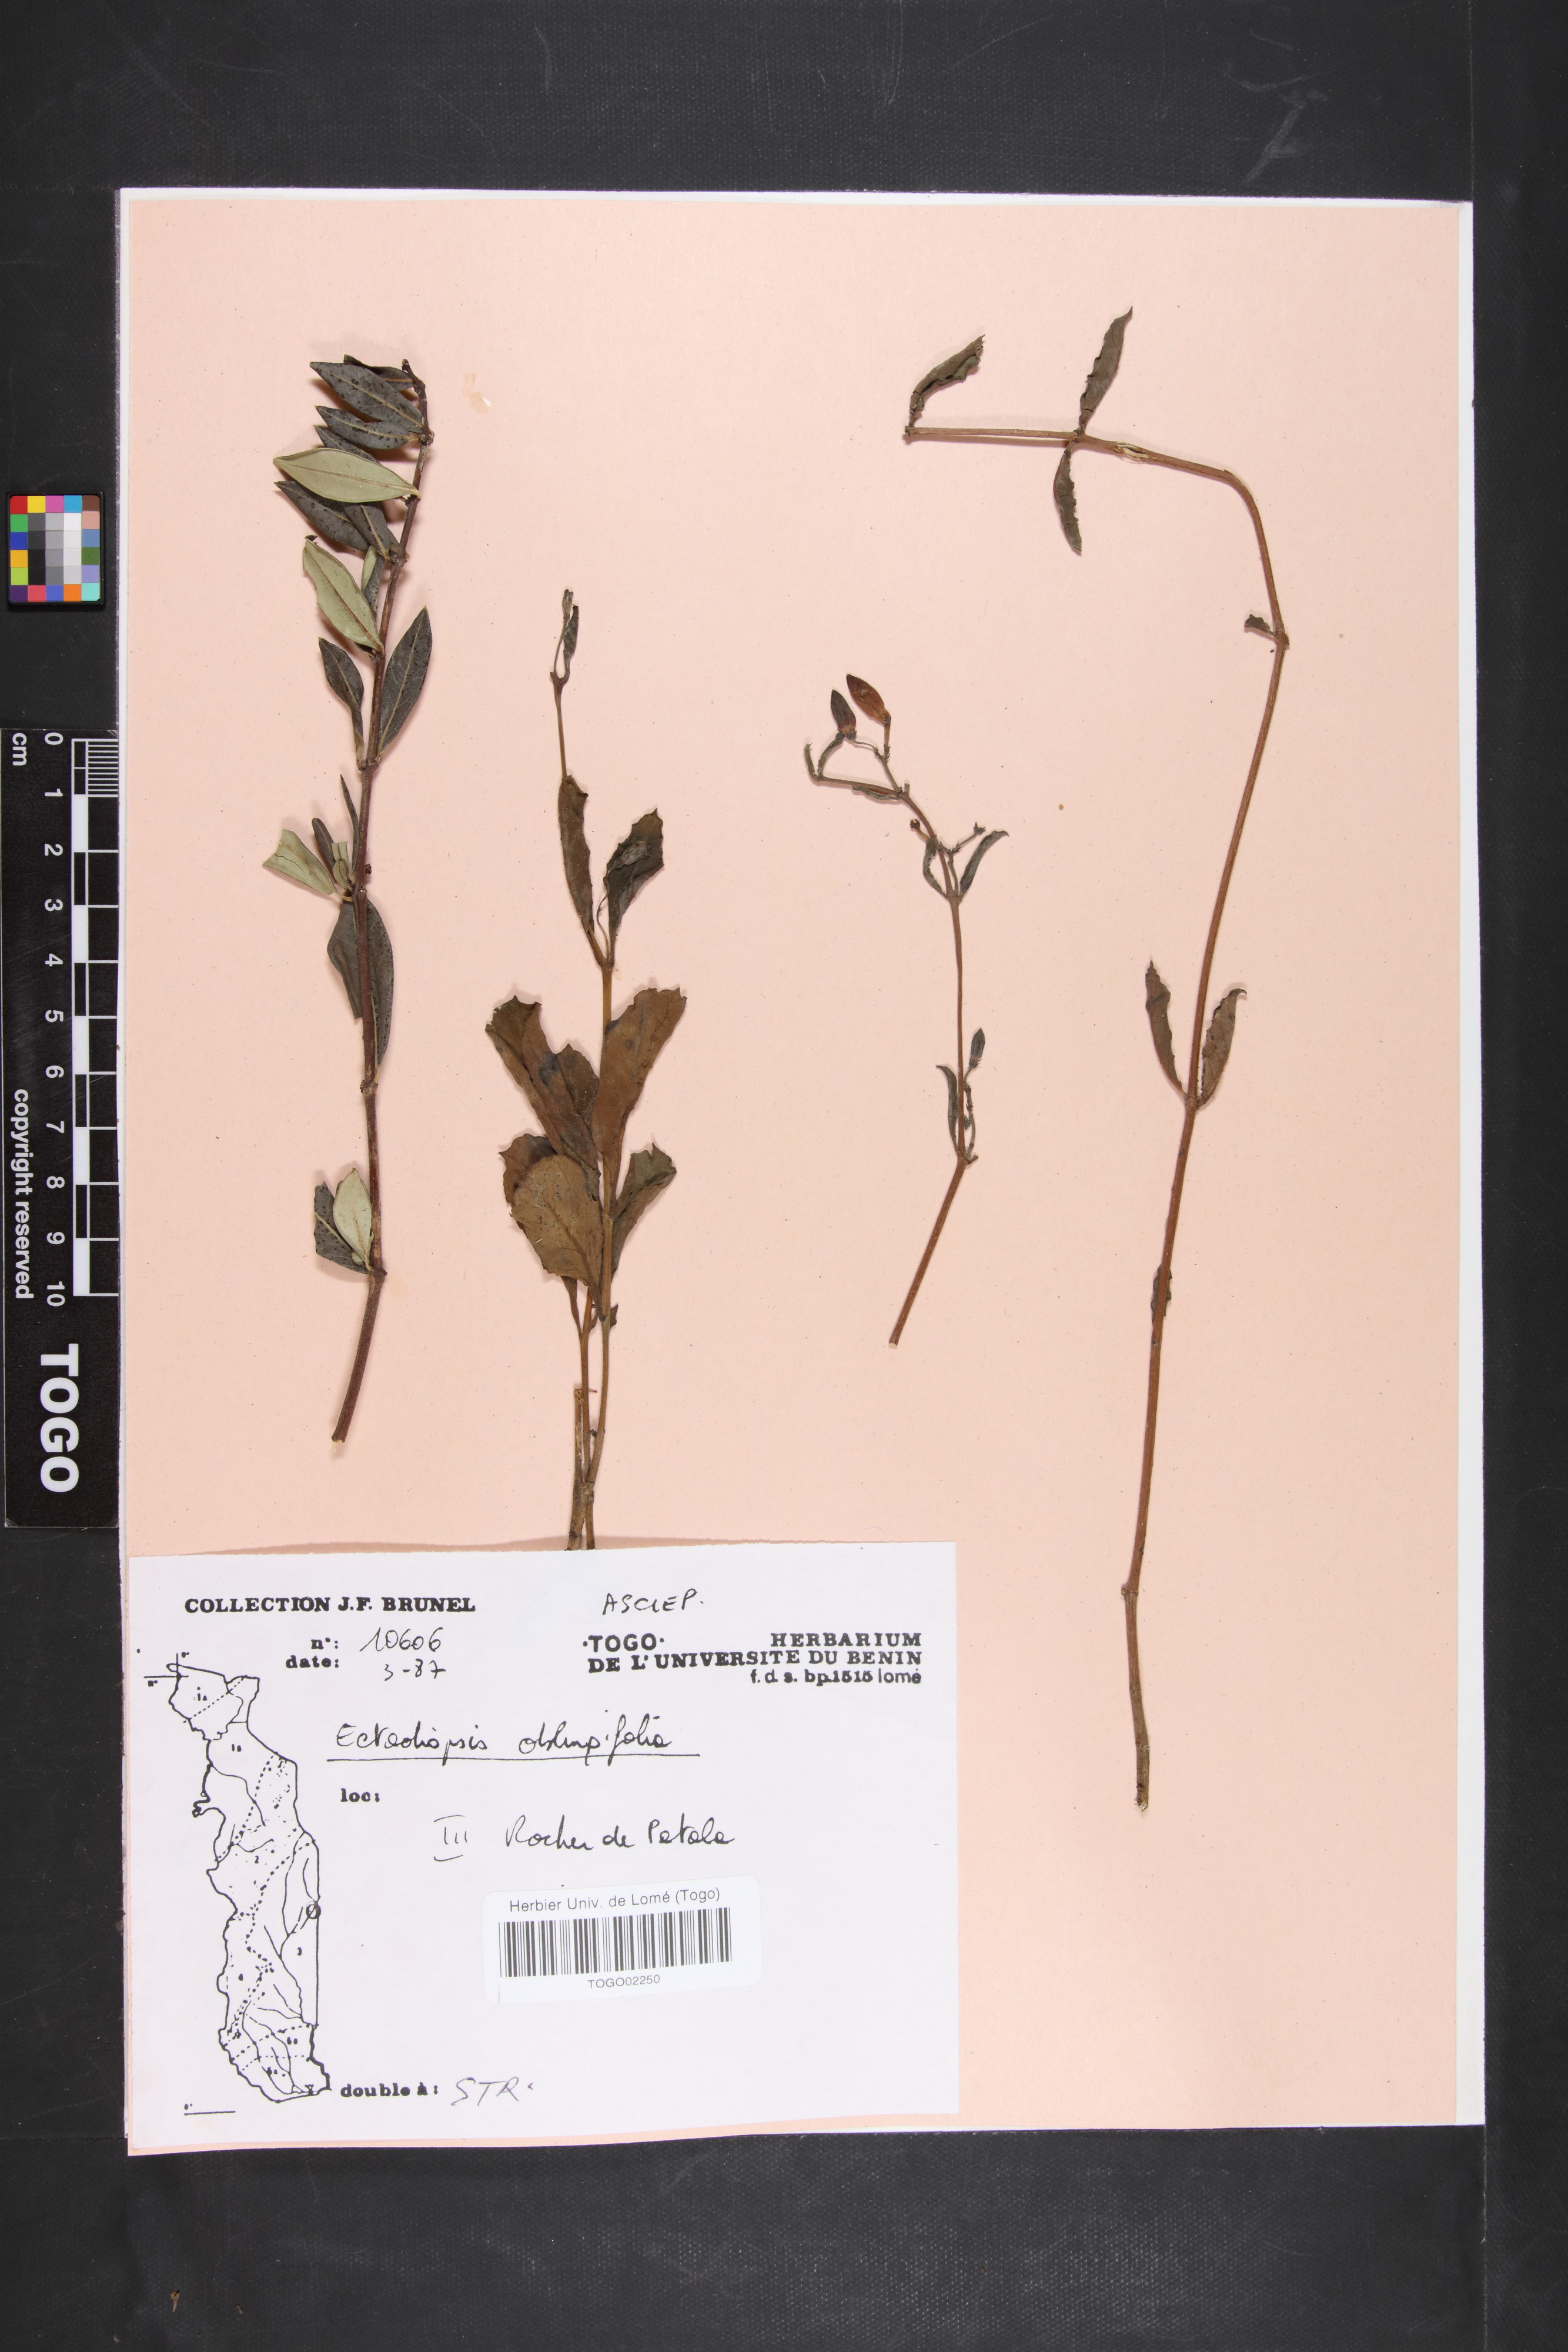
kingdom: Plantae
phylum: Tracheophyta
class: Magnoliopsida
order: Gentianales
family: Apocynaceae
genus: Cryptolepis
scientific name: Cryptolepis oblongifolia
